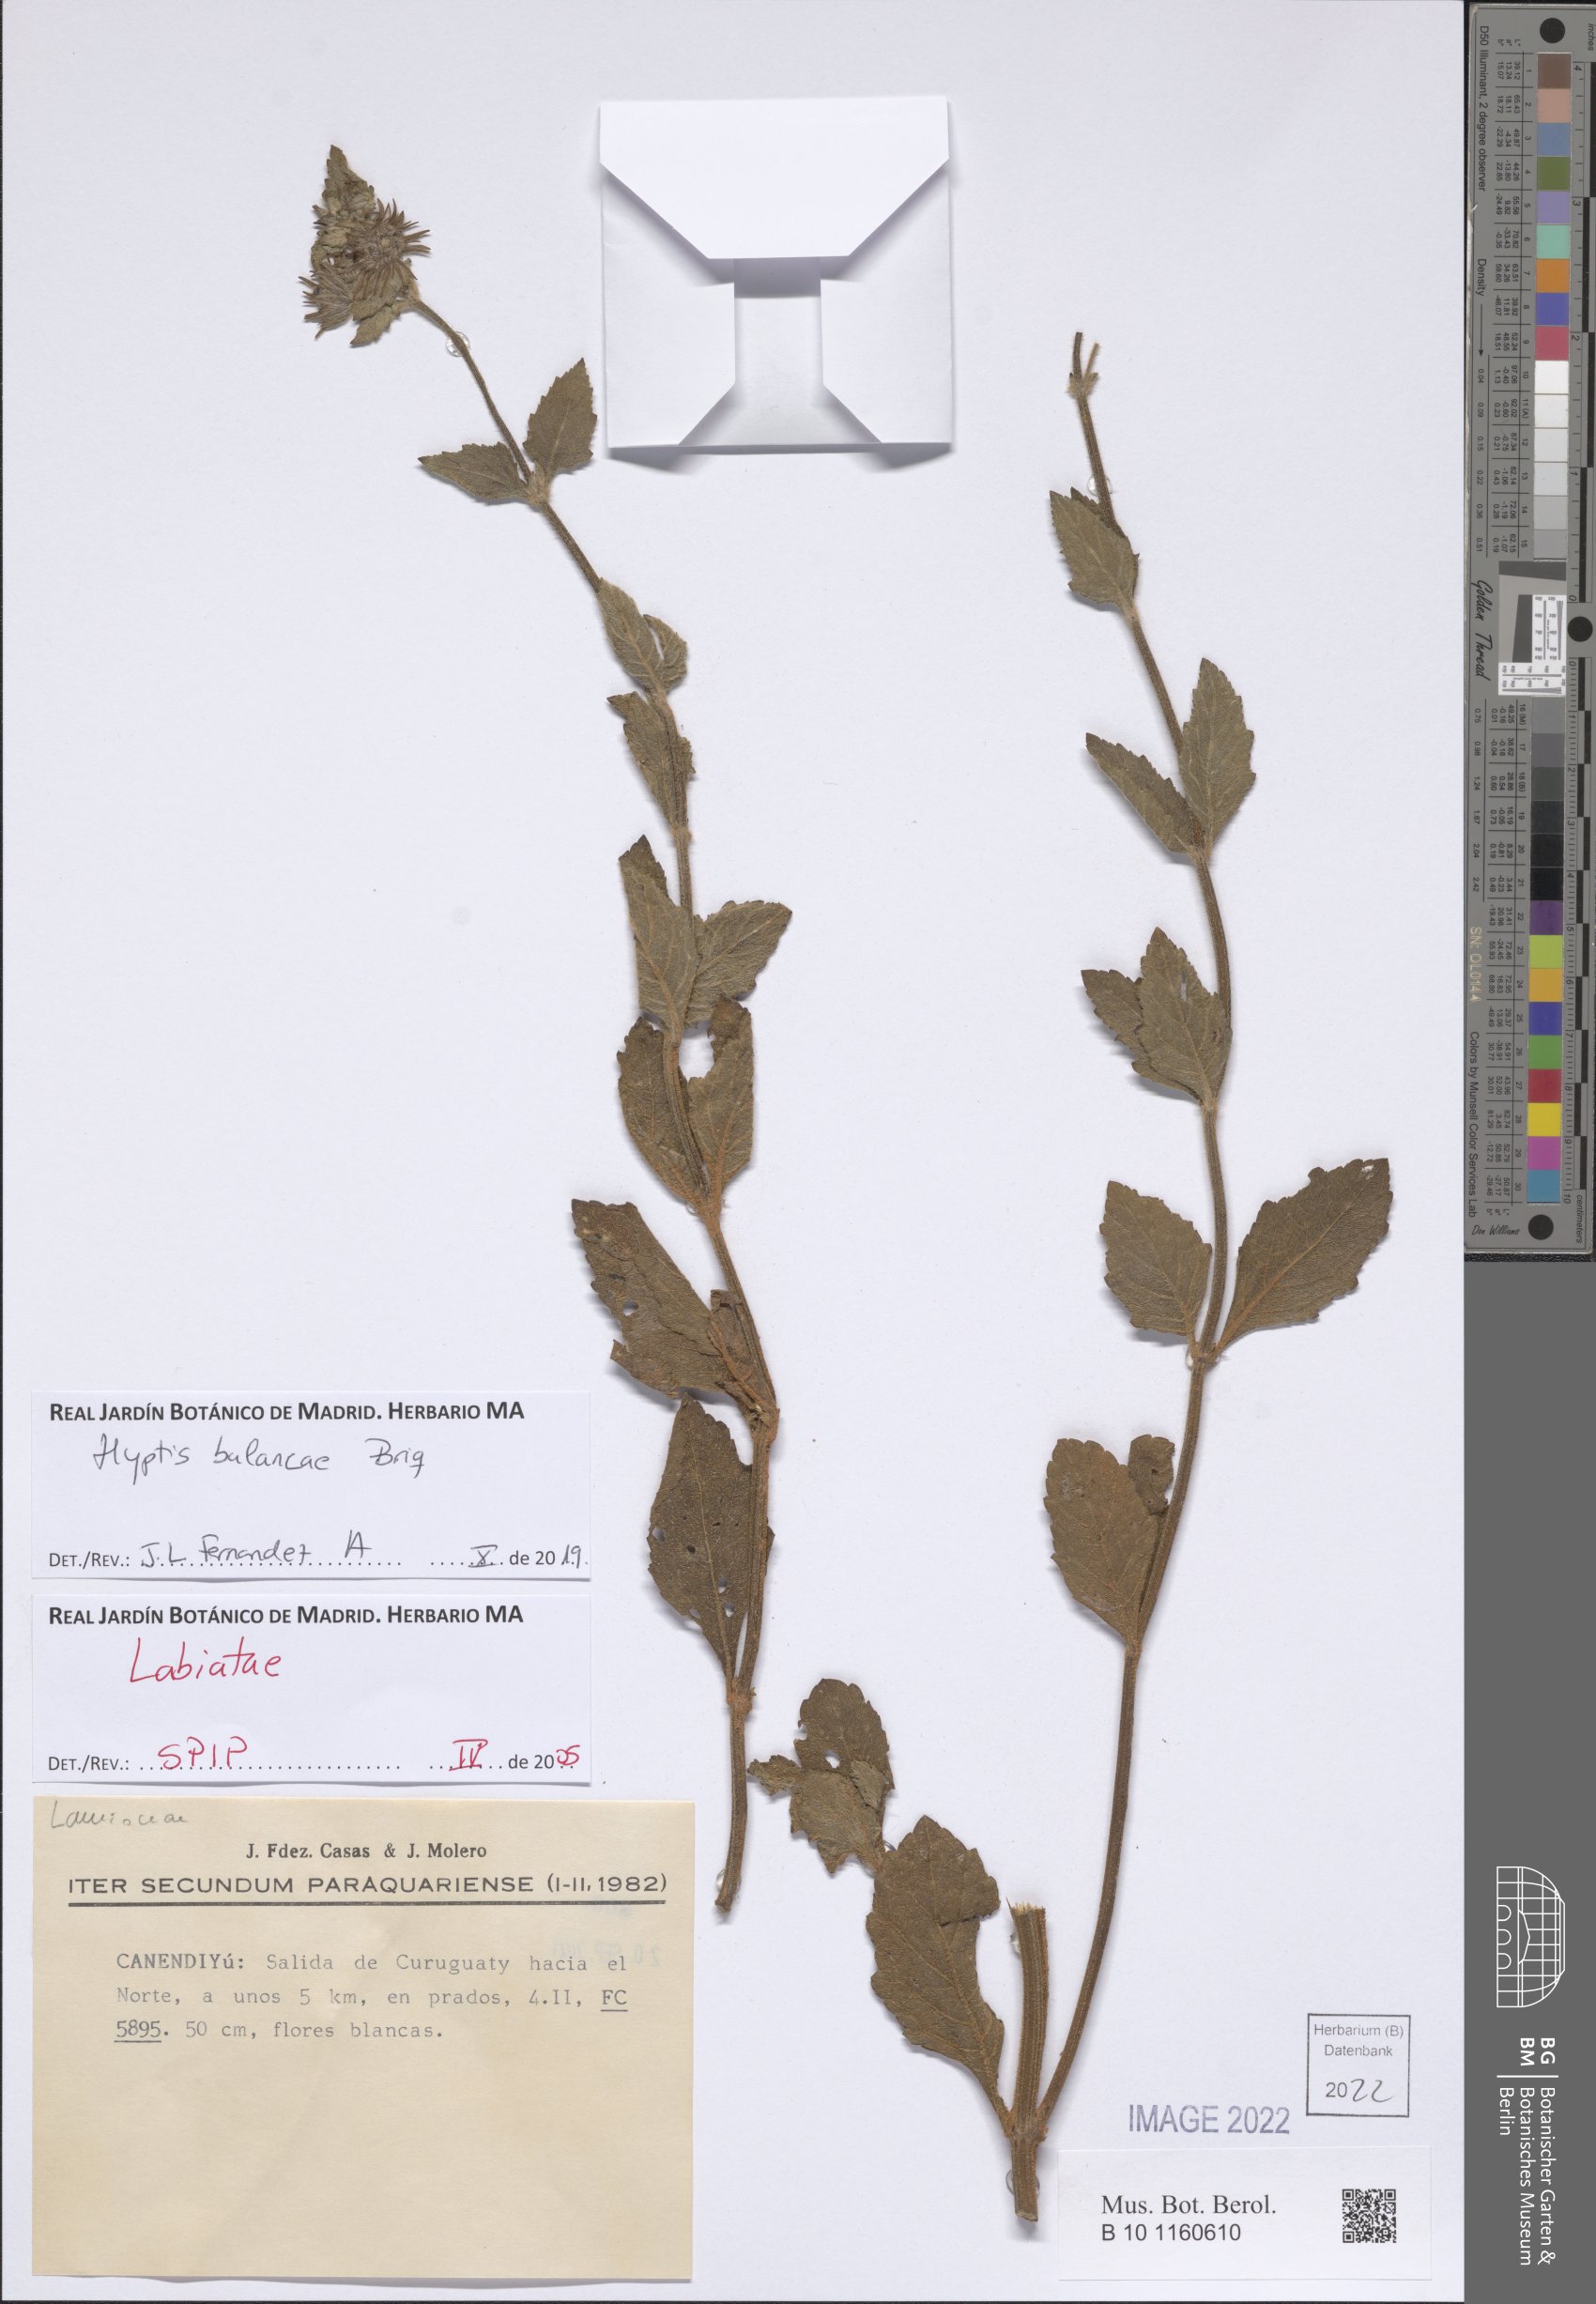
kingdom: Plantae
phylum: Tracheophyta
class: Magnoliopsida
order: Lamiales
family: Lamiaceae
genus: Hyptis
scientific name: Hyptis balansae
